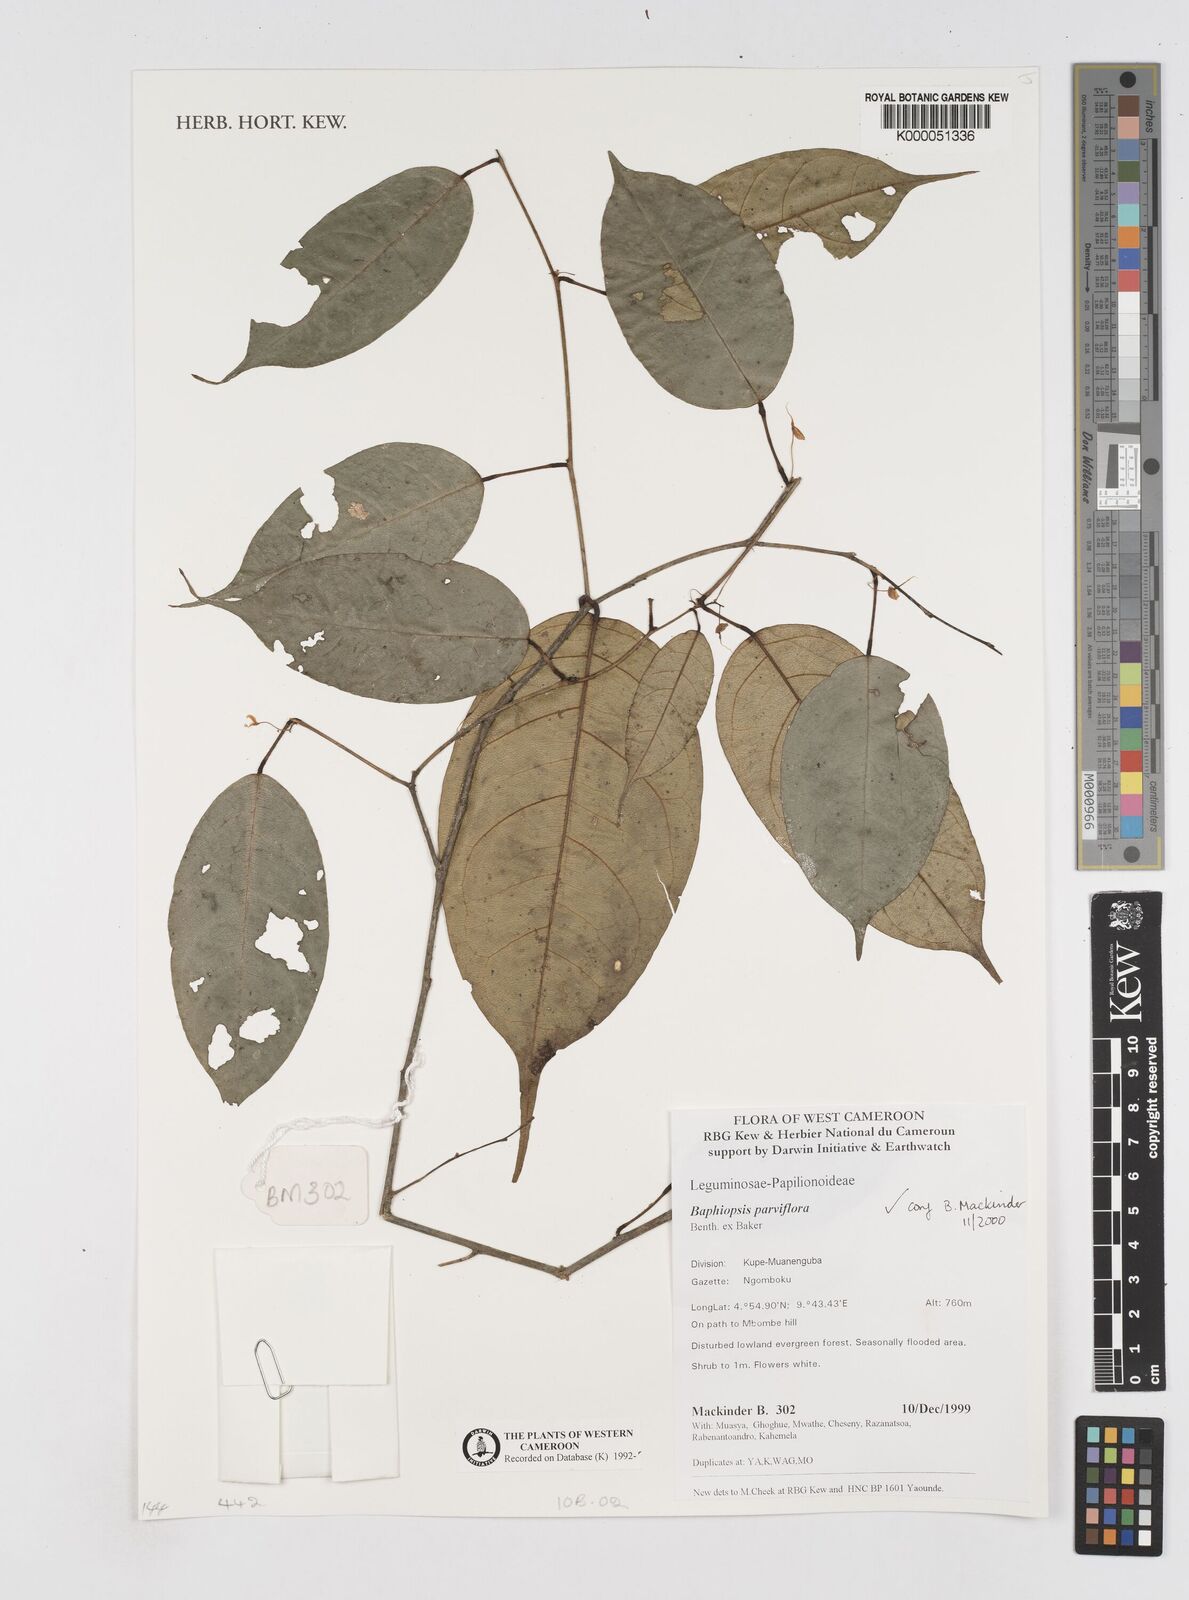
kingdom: Plantae
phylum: Tracheophyta
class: Magnoliopsida
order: Fabales
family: Fabaceae
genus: Baphiopsis
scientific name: Baphiopsis parviflora
